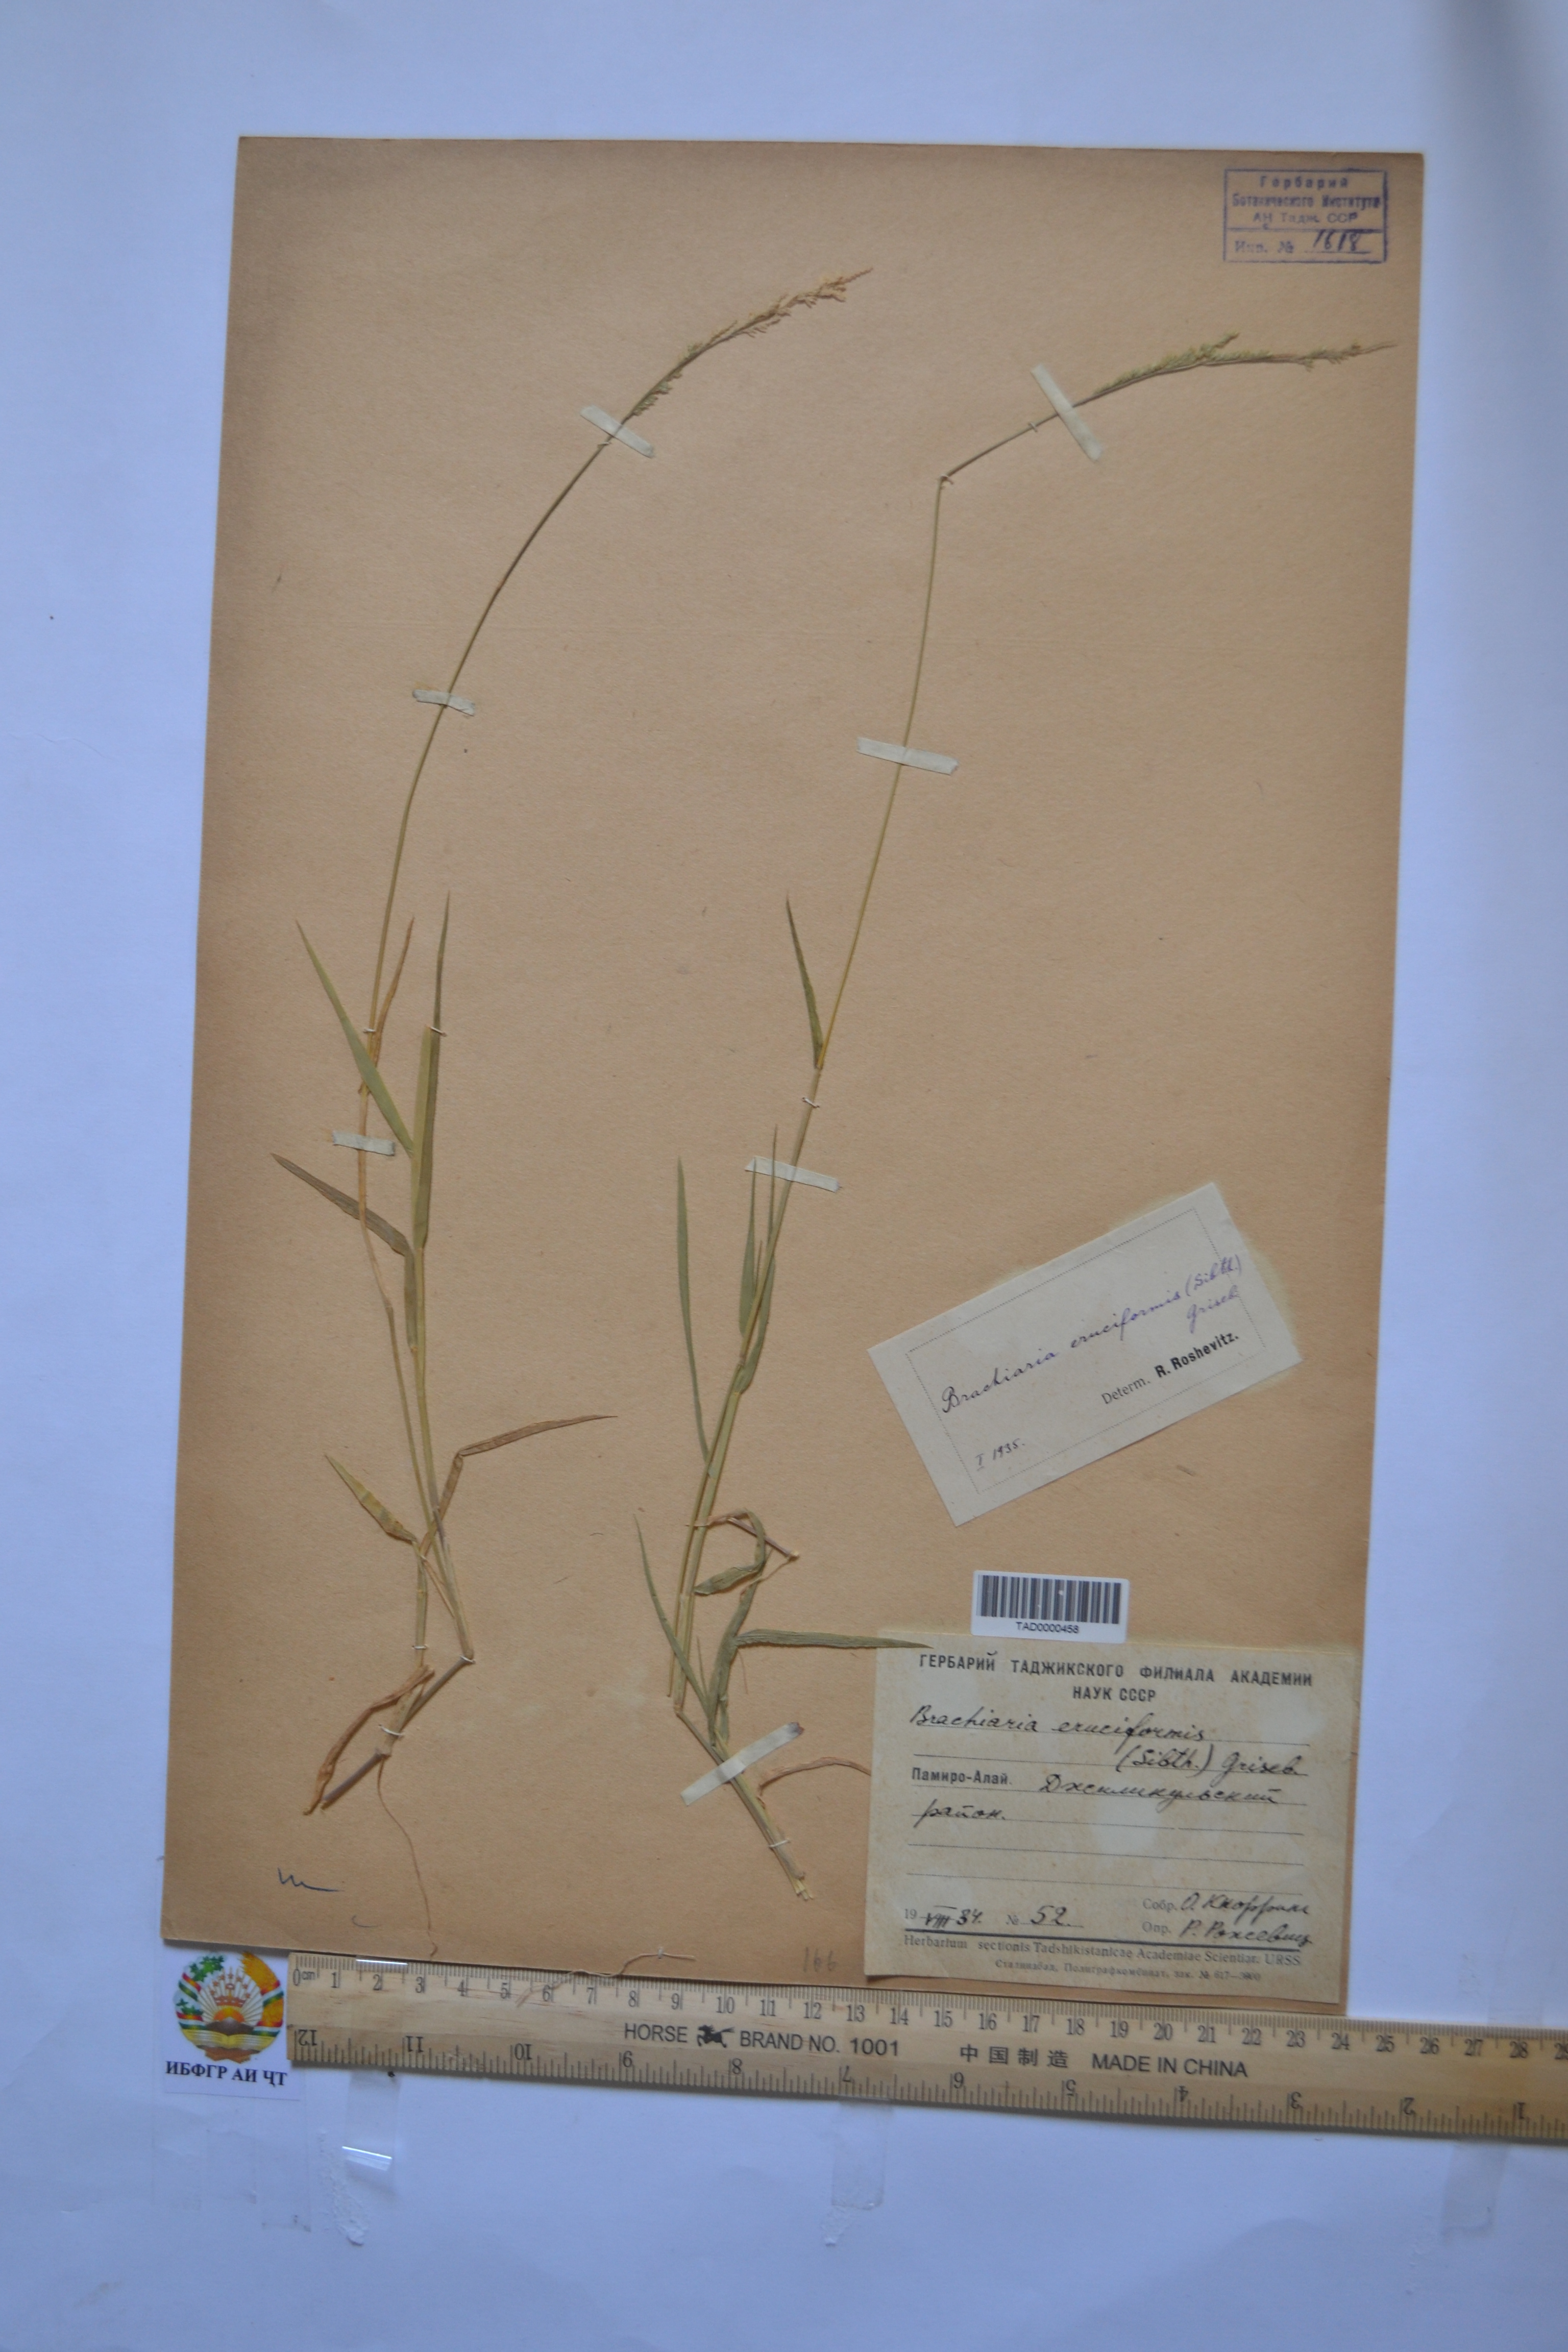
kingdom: Plantae
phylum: Tracheophyta
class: Liliopsida
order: Poales
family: Poaceae
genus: Moorochloa
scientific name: Moorochloa eruciformis
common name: Sweet signalgrass
